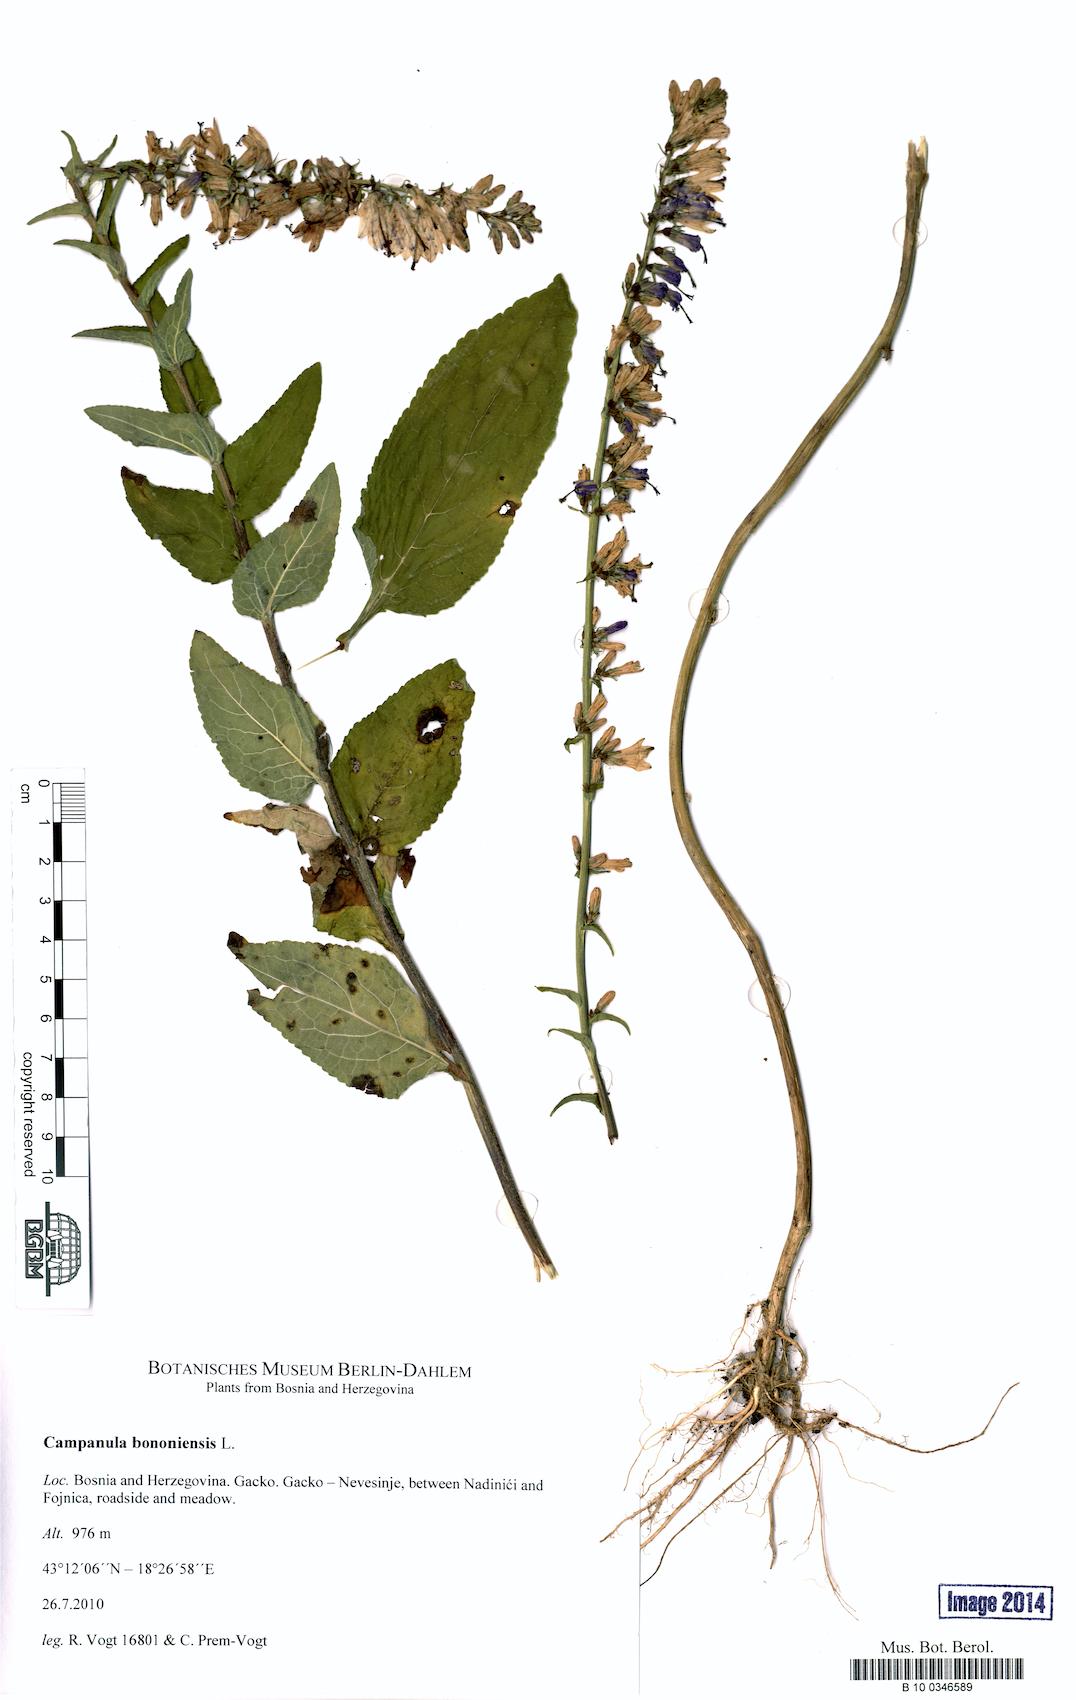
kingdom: Plantae
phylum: Tracheophyta
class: Magnoliopsida
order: Asterales
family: Campanulaceae
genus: Campanula
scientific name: Campanula bononiensis
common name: Pale bellflower
